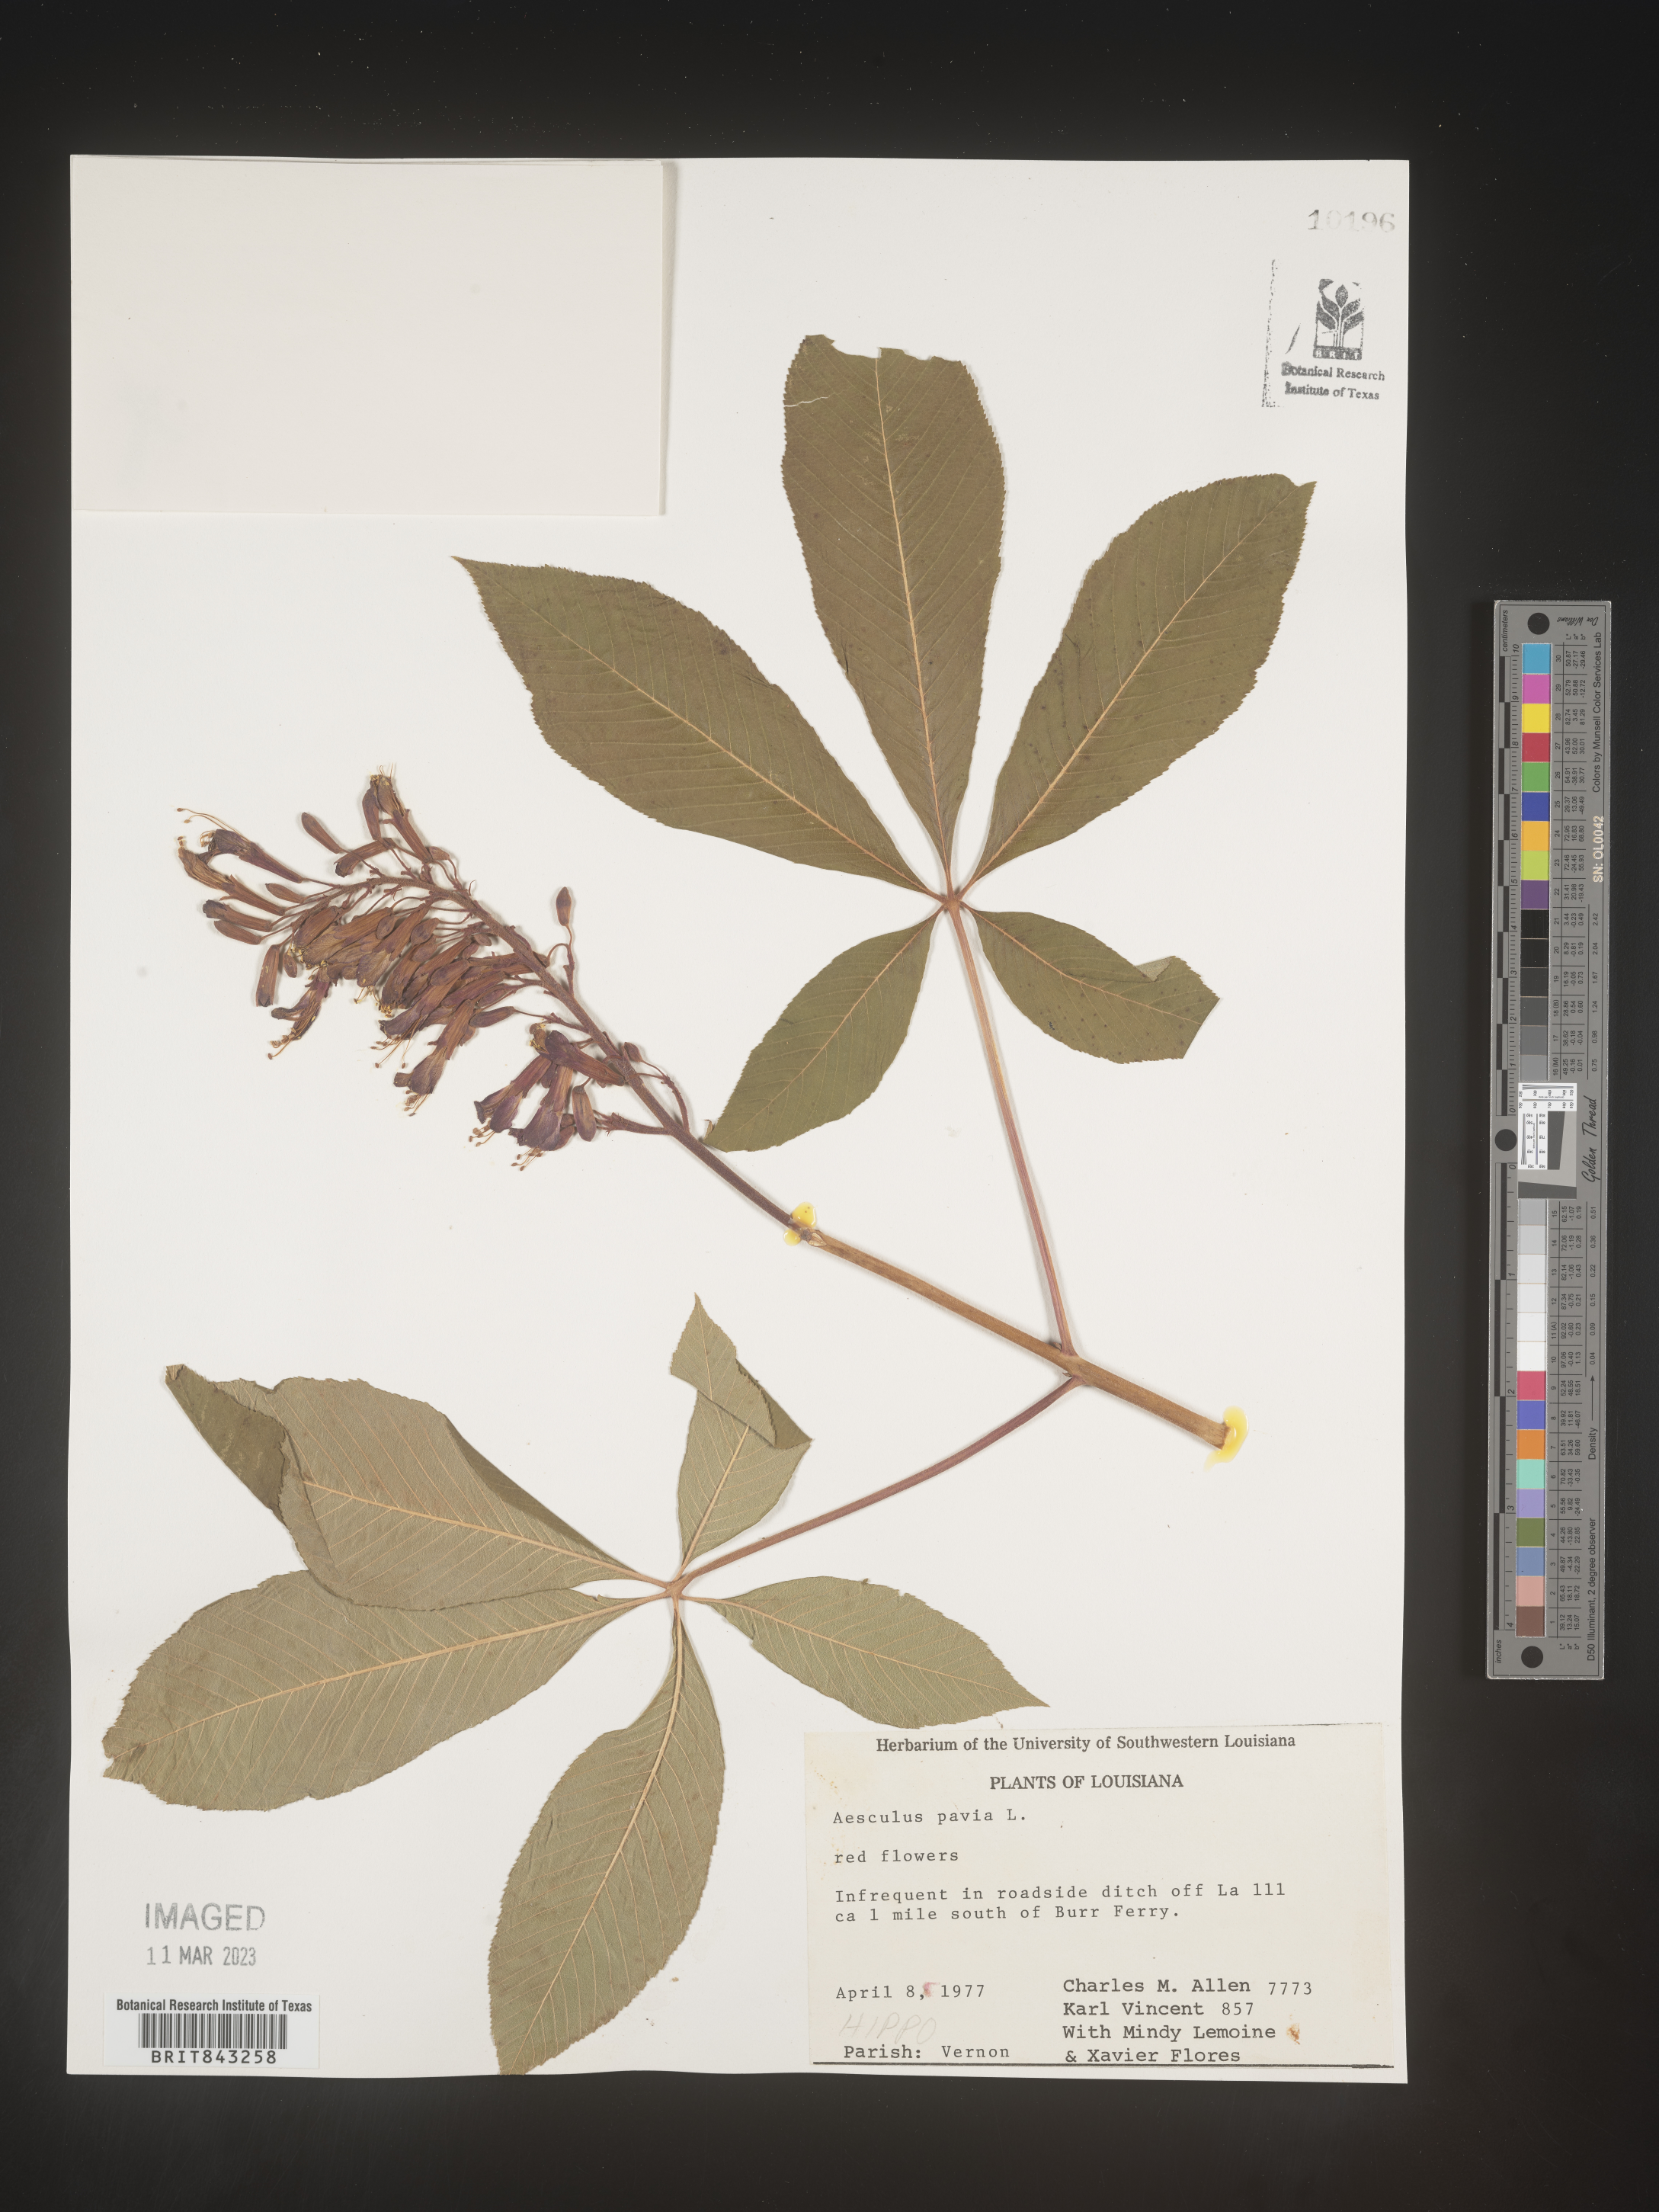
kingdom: Plantae
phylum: Tracheophyta
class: Magnoliopsida
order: Sapindales
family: Sapindaceae
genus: Aesculus
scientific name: Aesculus pavia
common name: Red buckeye
